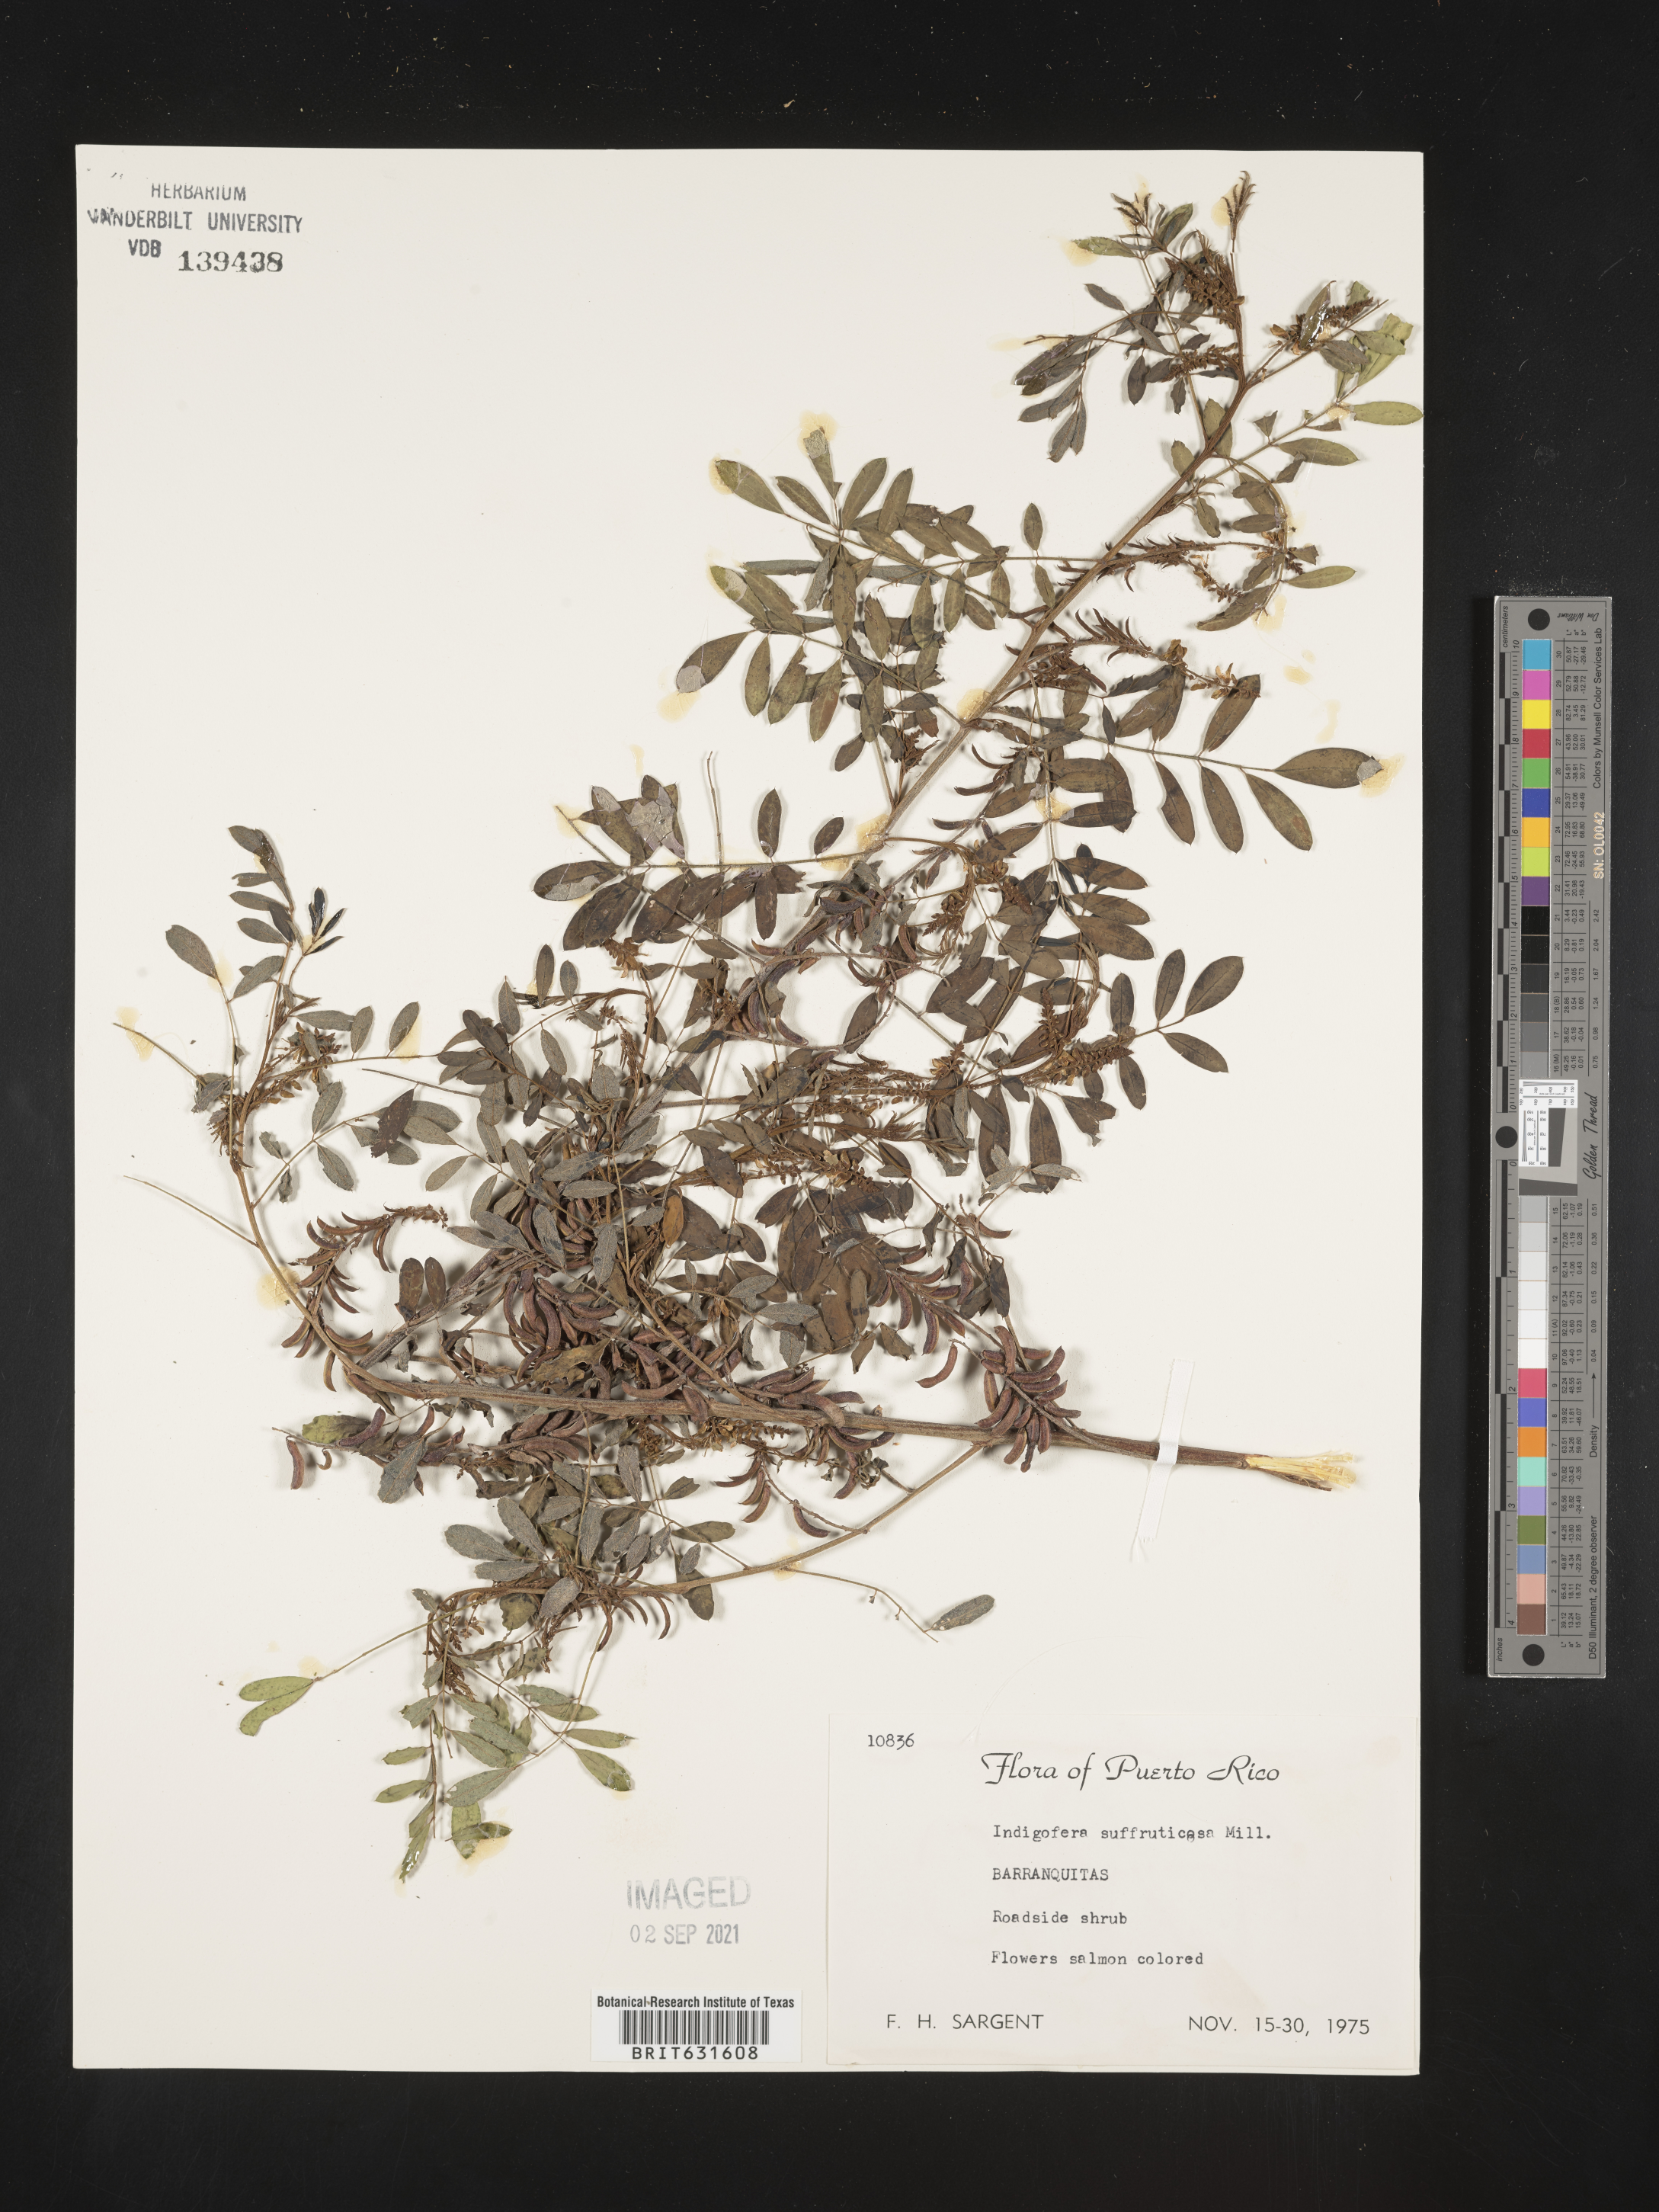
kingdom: Plantae
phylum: Tracheophyta
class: Magnoliopsida
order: Fabales
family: Fabaceae
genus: Indigofera
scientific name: Indigofera
